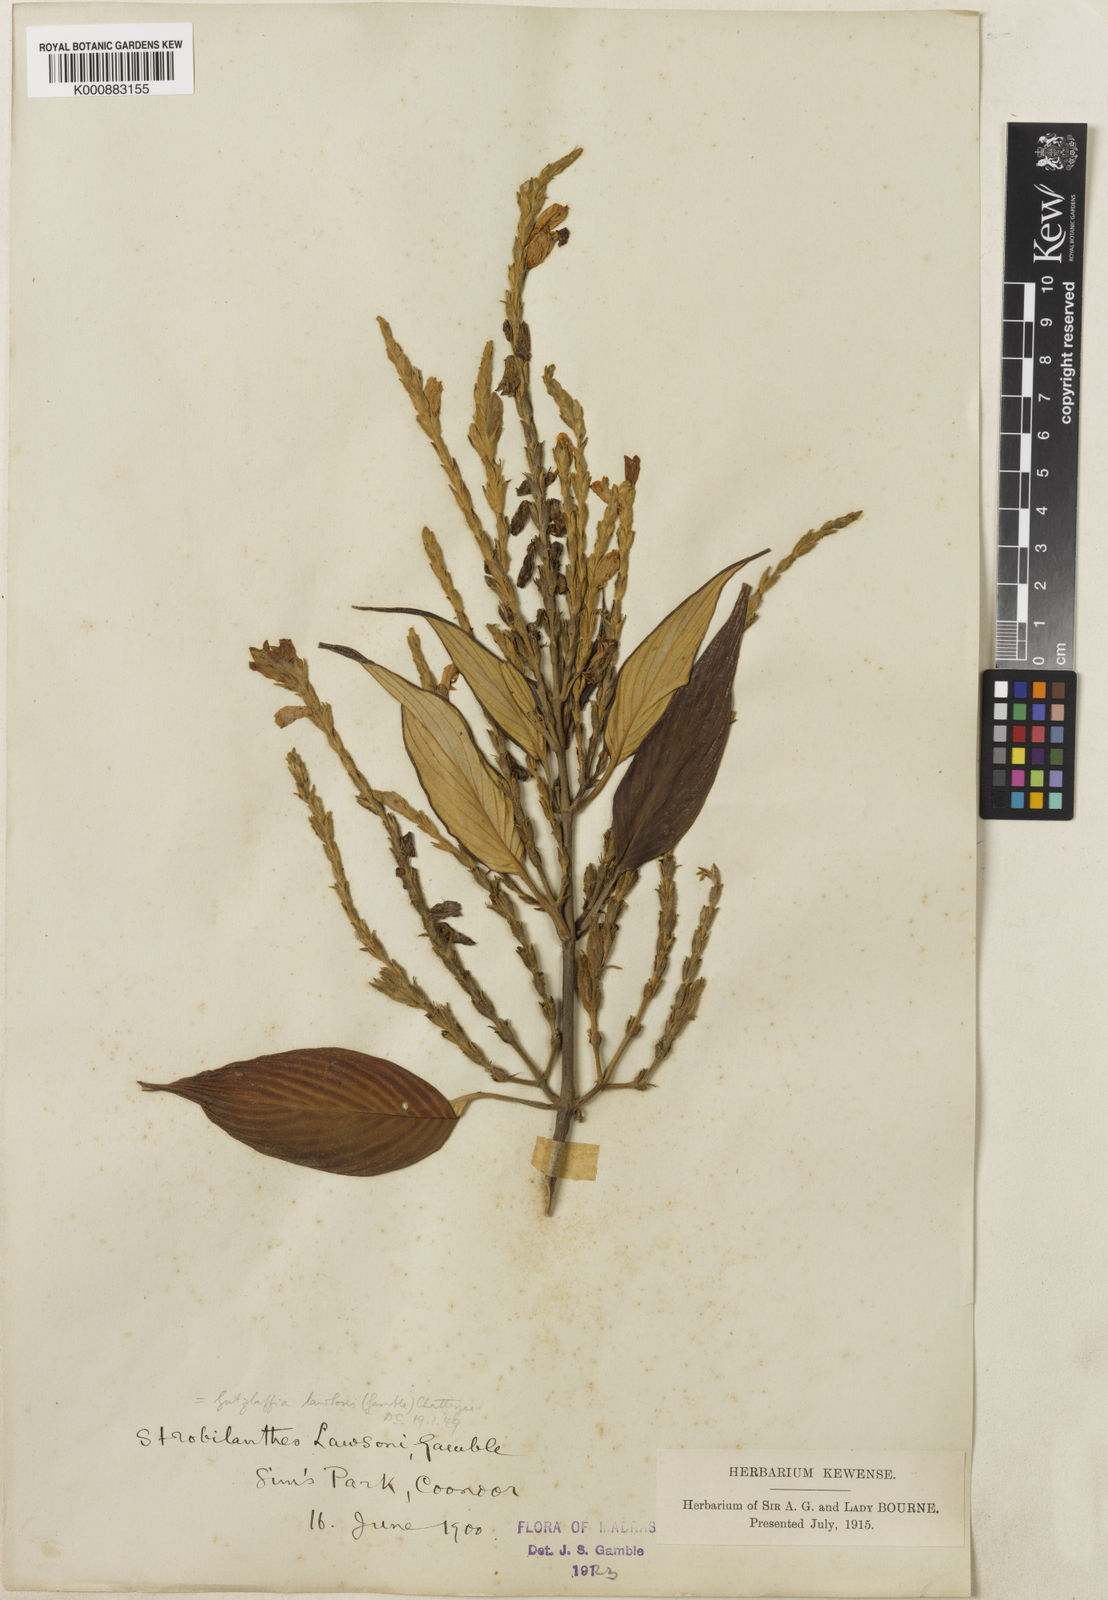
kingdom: Plantae
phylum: Tracheophyta
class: Magnoliopsida
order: Lamiales
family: Acanthaceae
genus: Strobilanthes
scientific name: Strobilanthes
